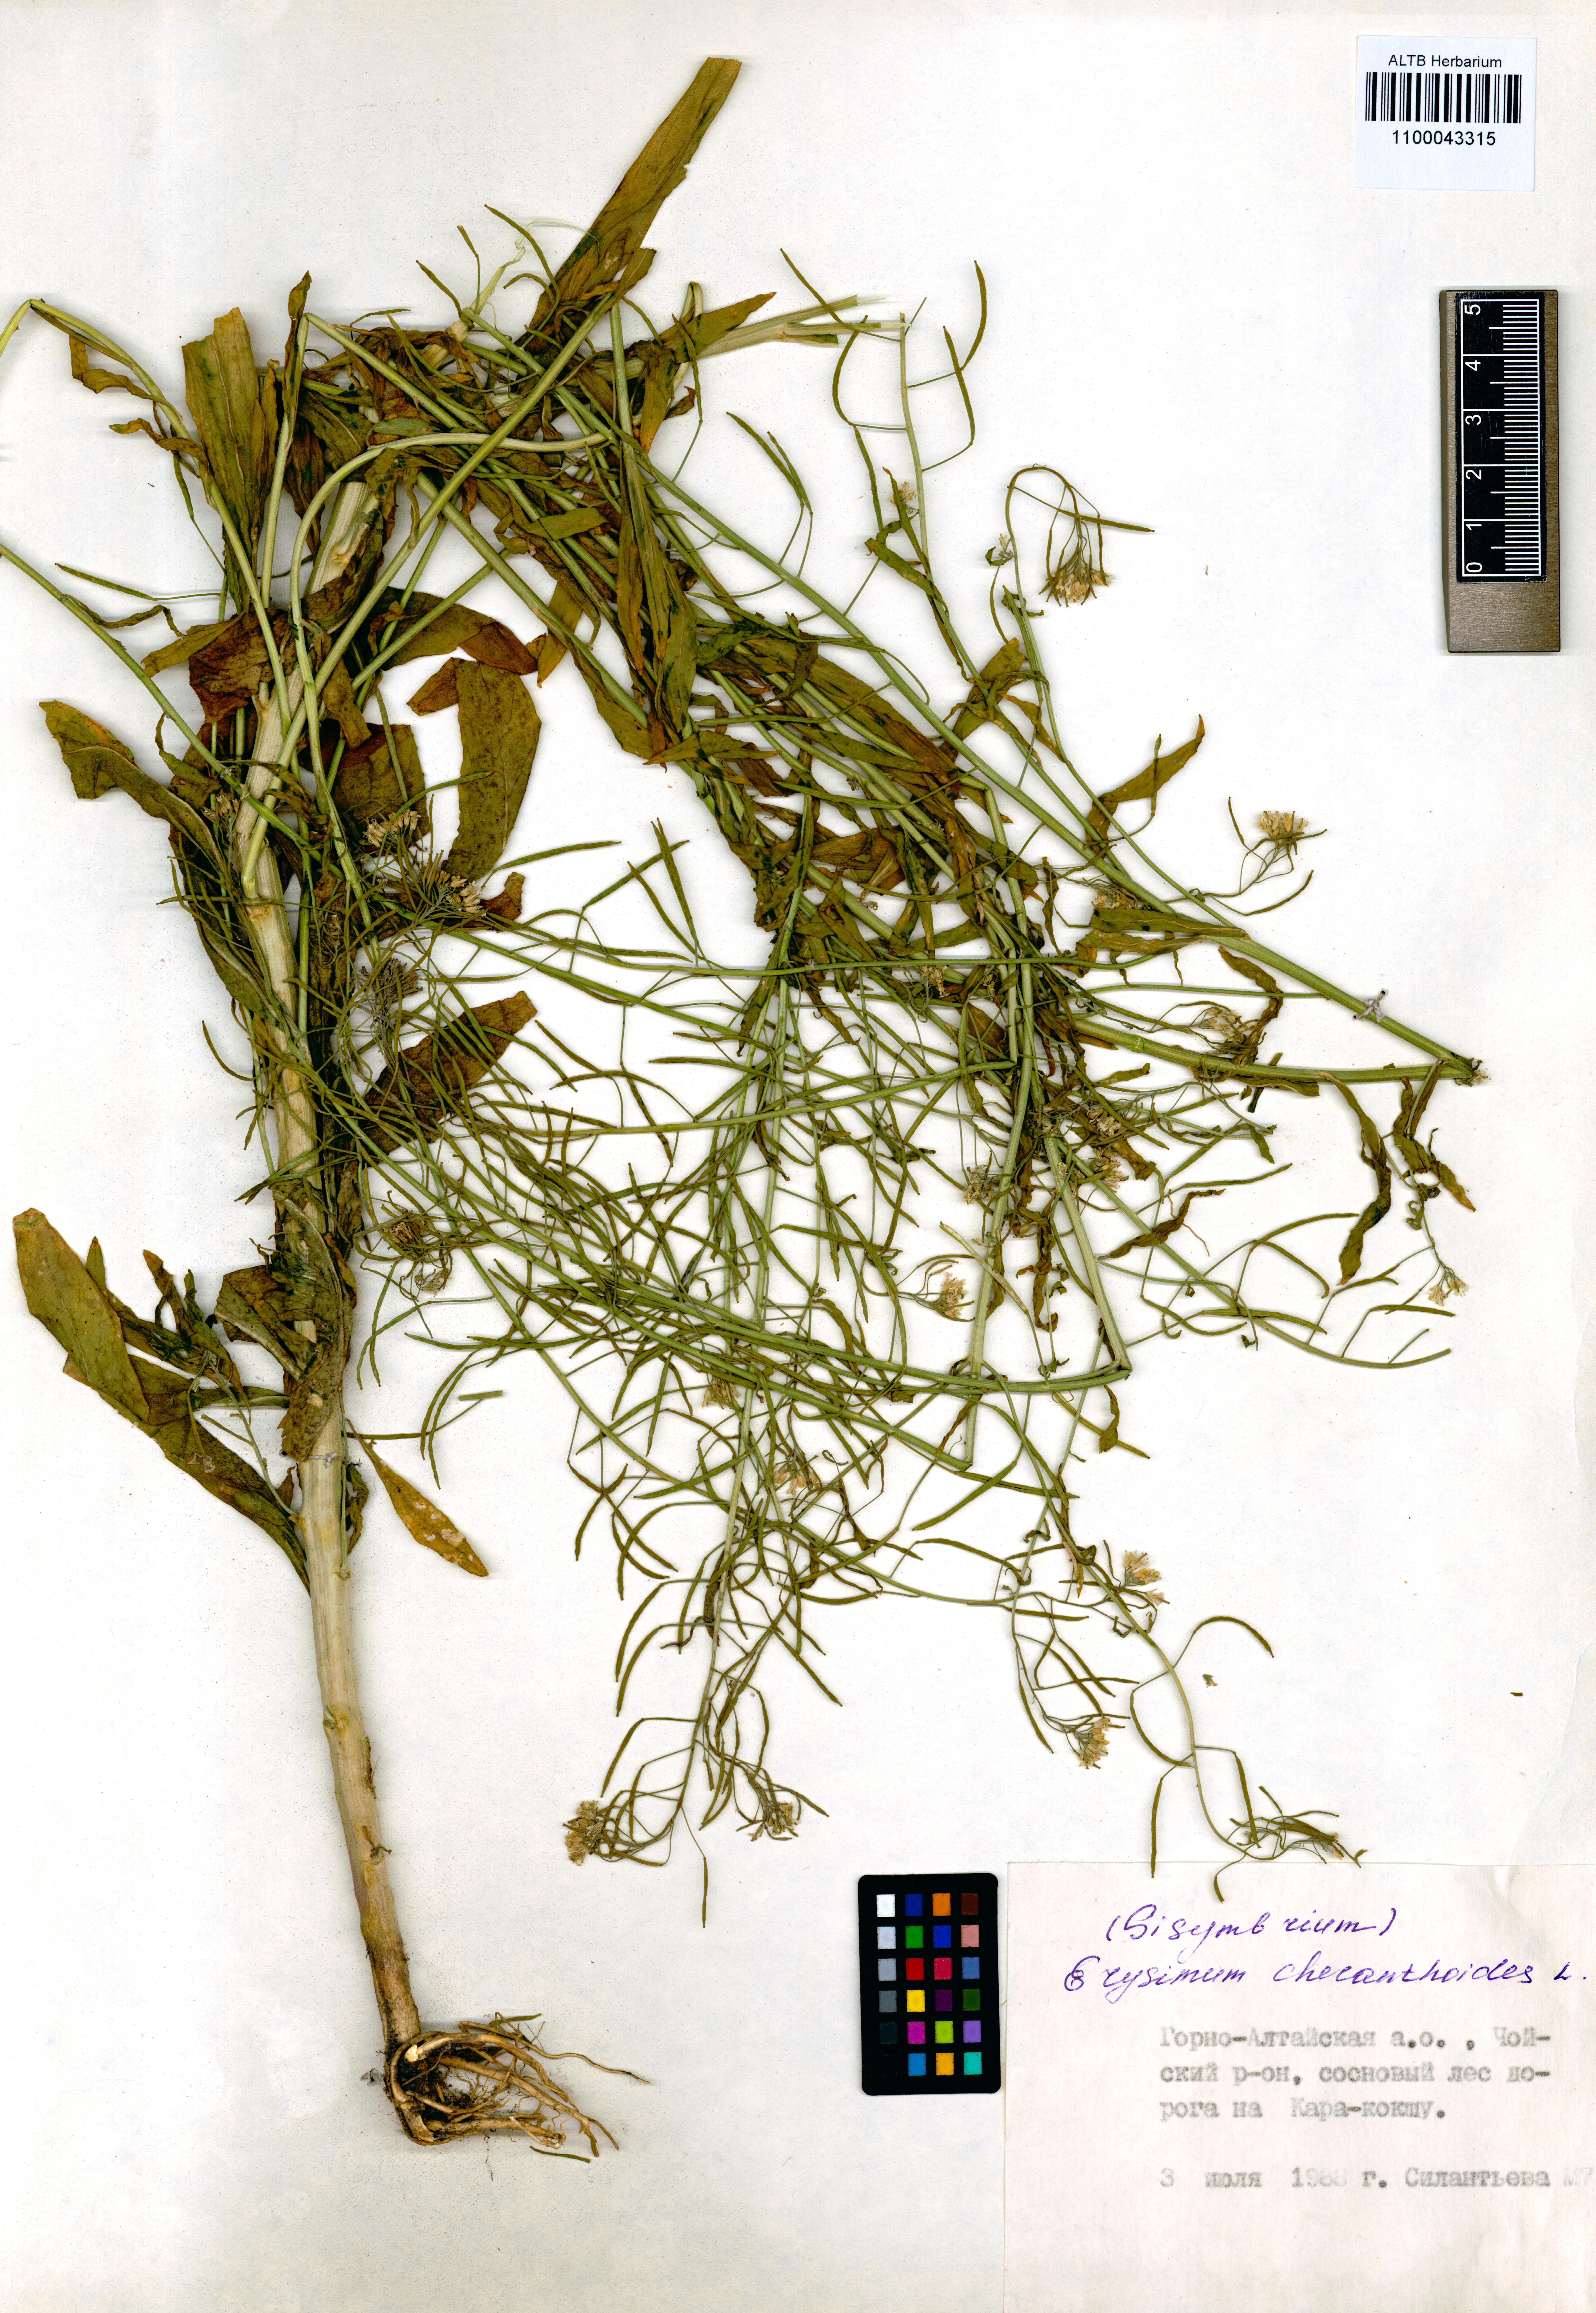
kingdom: Plantae
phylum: Tracheophyta
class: Magnoliopsida
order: Brassicales
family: Brassicaceae
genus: Erysimum
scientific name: Erysimum cheiranthoides
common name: Treacle mustard
